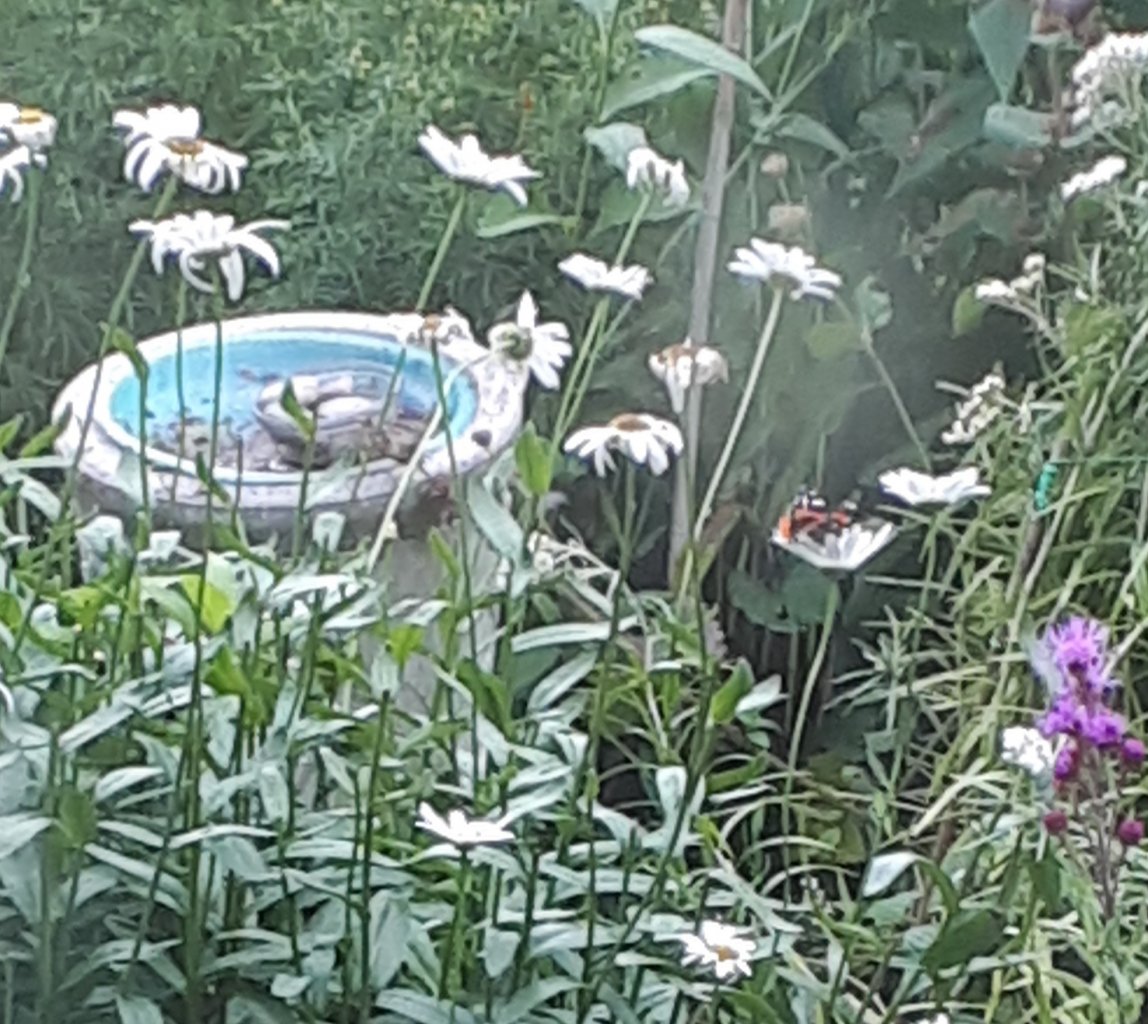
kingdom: Animalia
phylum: Arthropoda
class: Insecta
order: Lepidoptera
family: Nymphalidae
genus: Vanessa
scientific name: Vanessa atalanta
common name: Red Admiral
